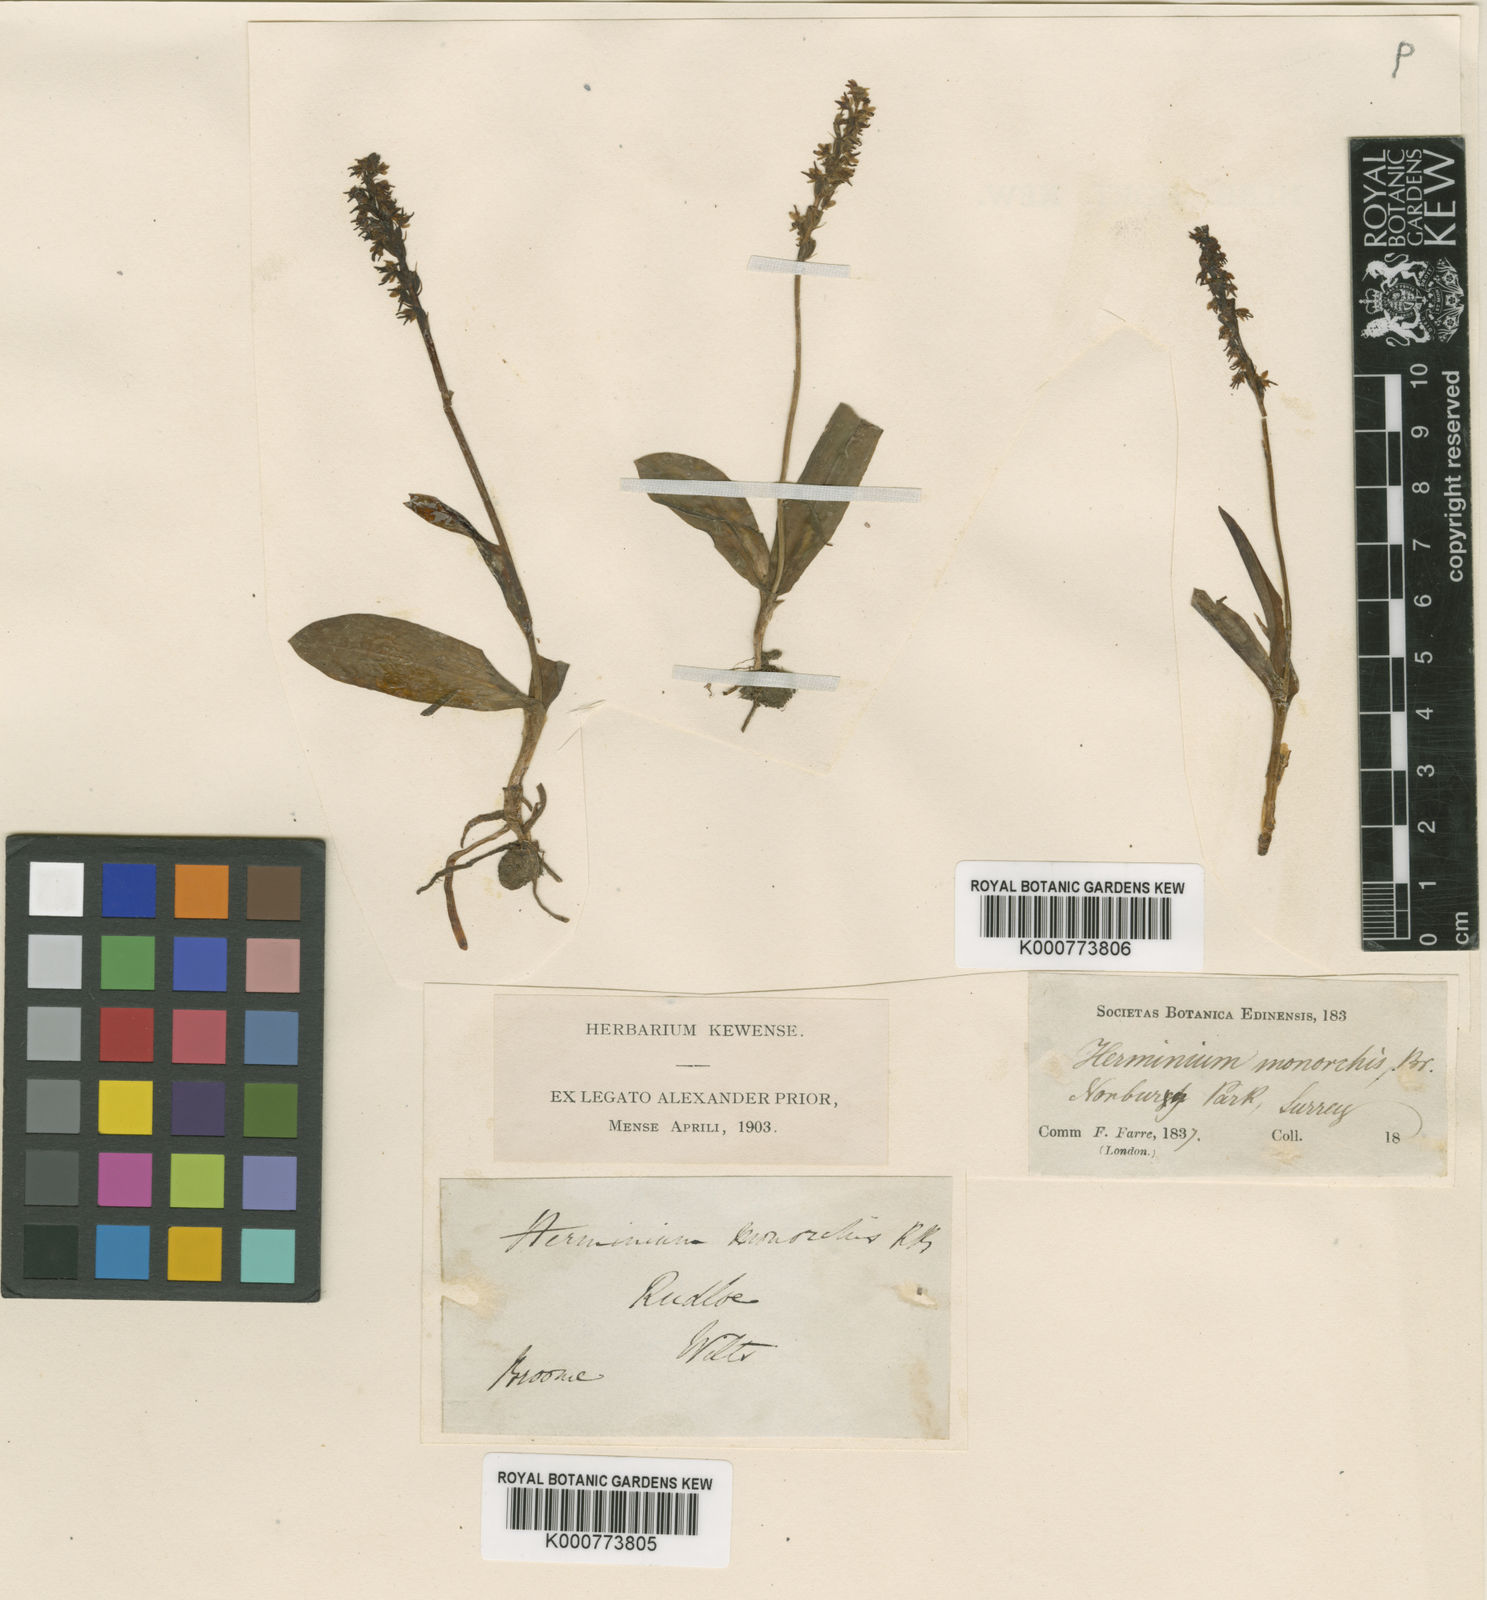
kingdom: Plantae
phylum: Tracheophyta
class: Liliopsida
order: Asparagales
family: Orchidaceae
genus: Herminium
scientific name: Herminium monorchis
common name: Musk orchid
